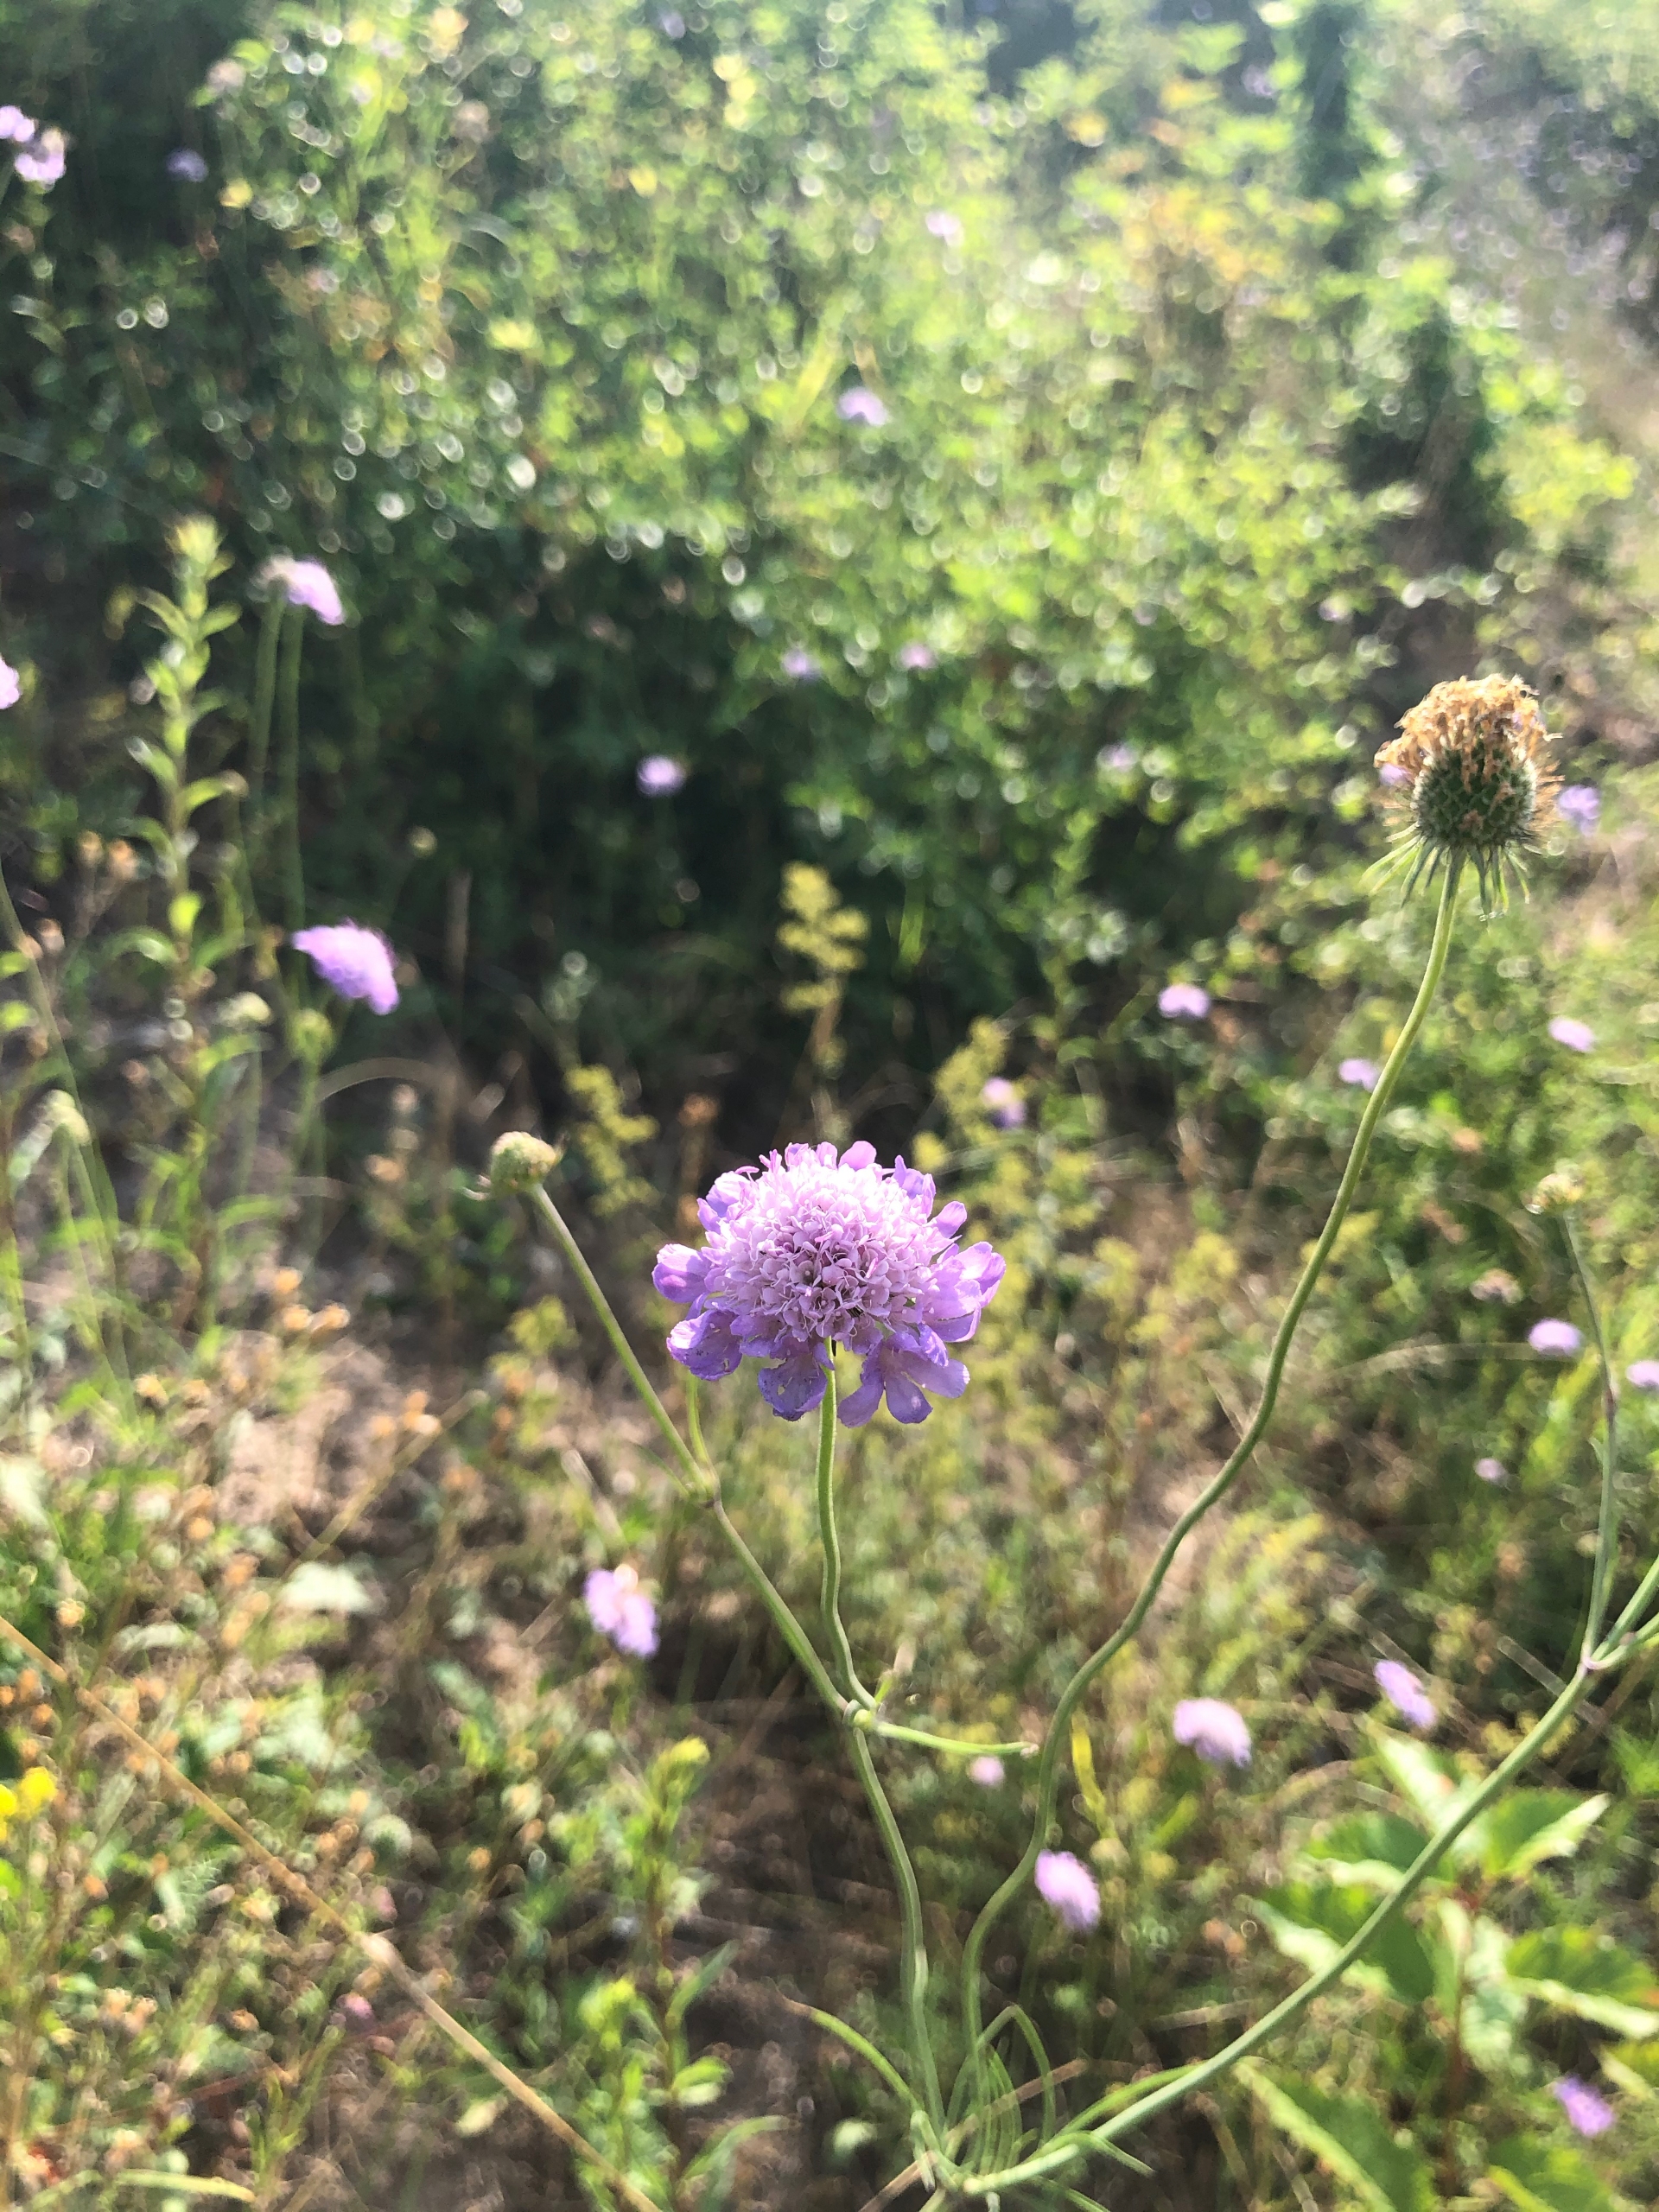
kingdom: Plantae
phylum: Tracheophyta
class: Magnoliopsida
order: Dipsacales
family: Caprifoliaceae
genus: Scabiosa
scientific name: Scabiosa columbaria
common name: Due-skabiose
